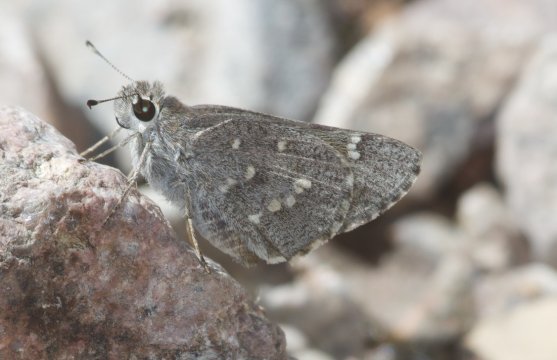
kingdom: Animalia
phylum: Arthropoda
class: Insecta
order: Lepidoptera
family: Hesperiidae
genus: Atrytonopsis
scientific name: Atrytonopsis ovinia
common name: Sheep Skipper
